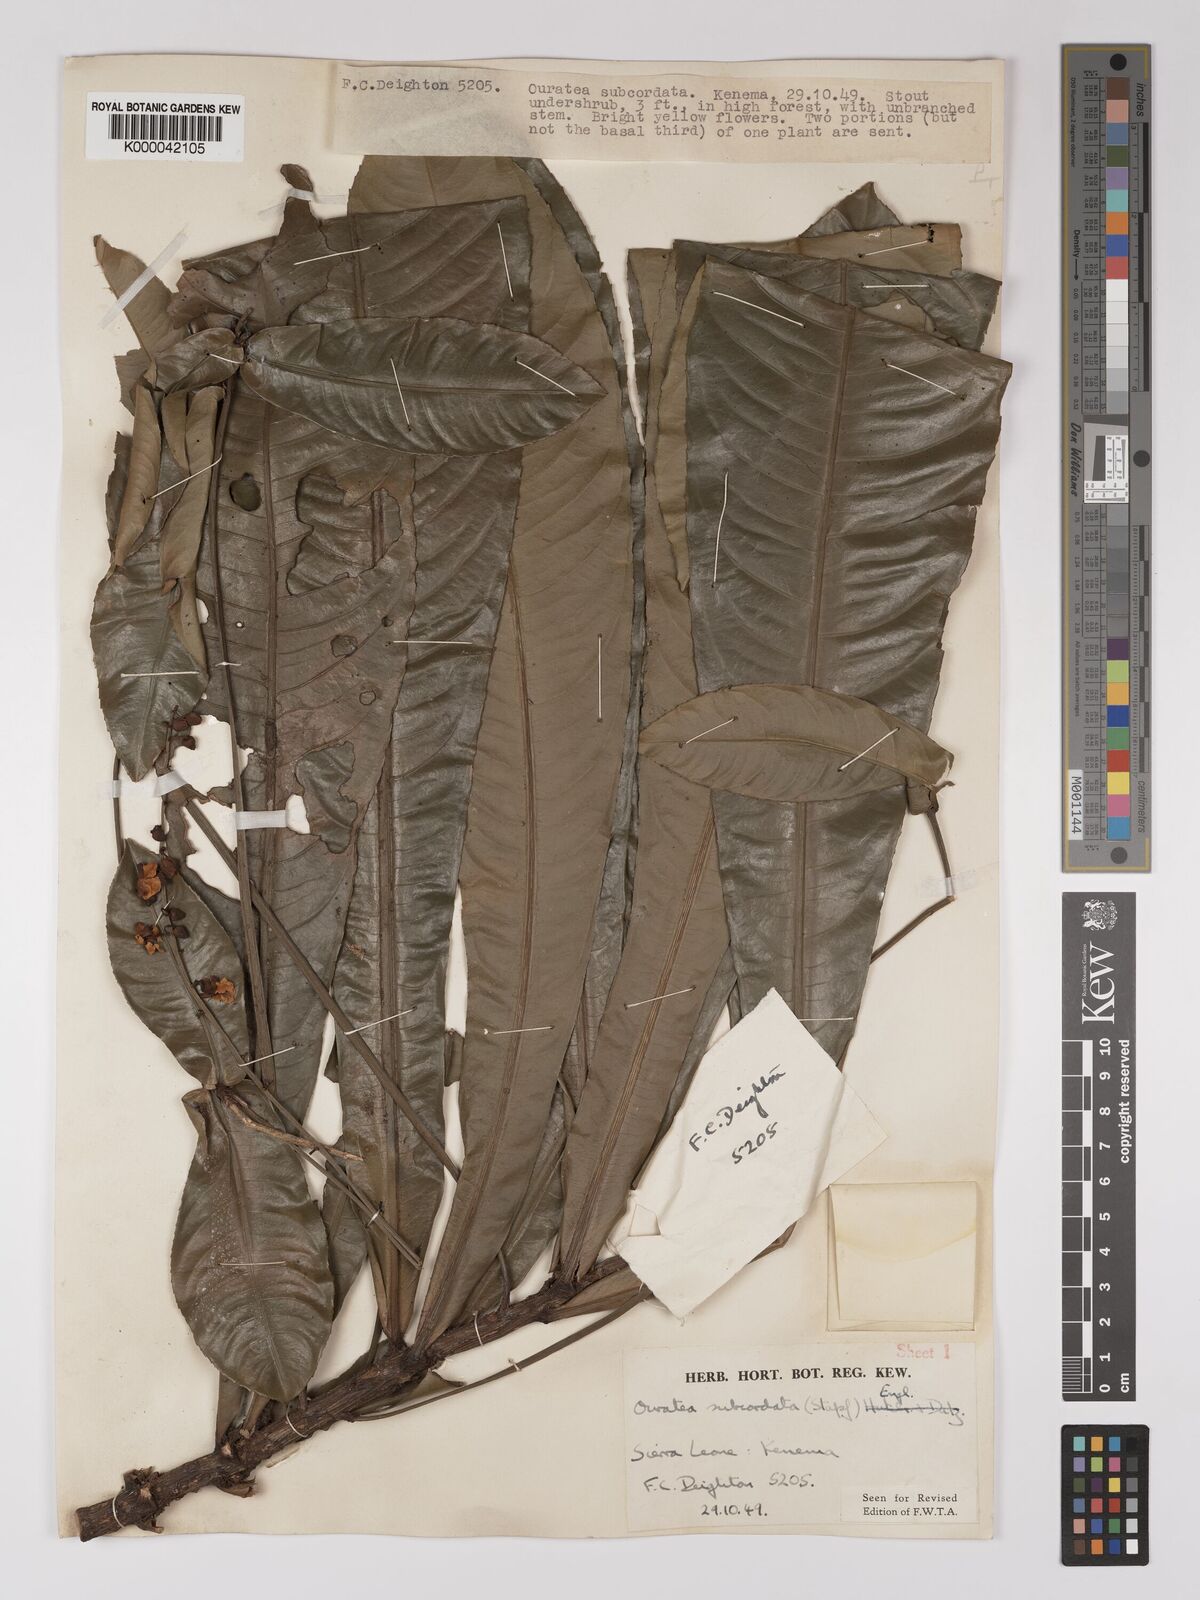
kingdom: Plantae
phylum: Tracheophyta
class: Magnoliopsida
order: Malpighiales
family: Ochnaceae
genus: Campylospermum
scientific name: Campylospermum subcordatum
